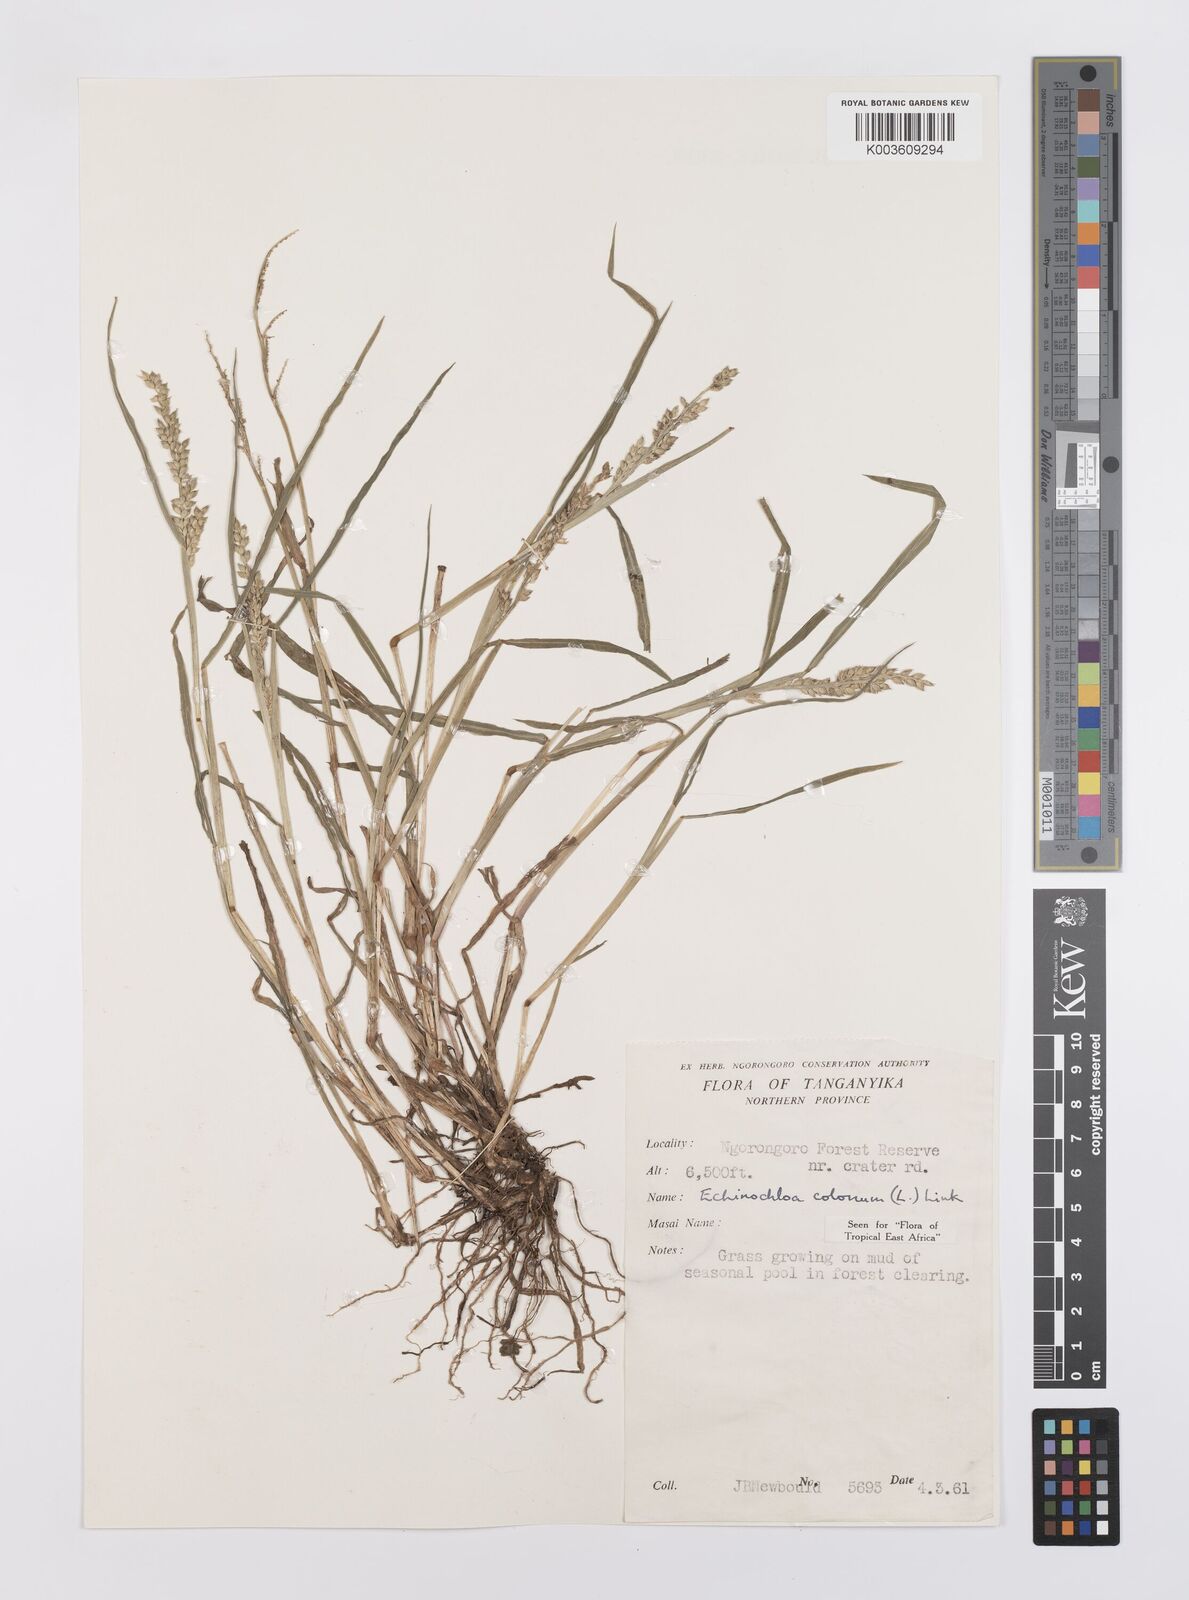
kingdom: Plantae
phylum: Tracheophyta
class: Liliopsida
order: Poales
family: Poaceae
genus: Echinochloa
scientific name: Echinochloa colonum
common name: Jungle rice
